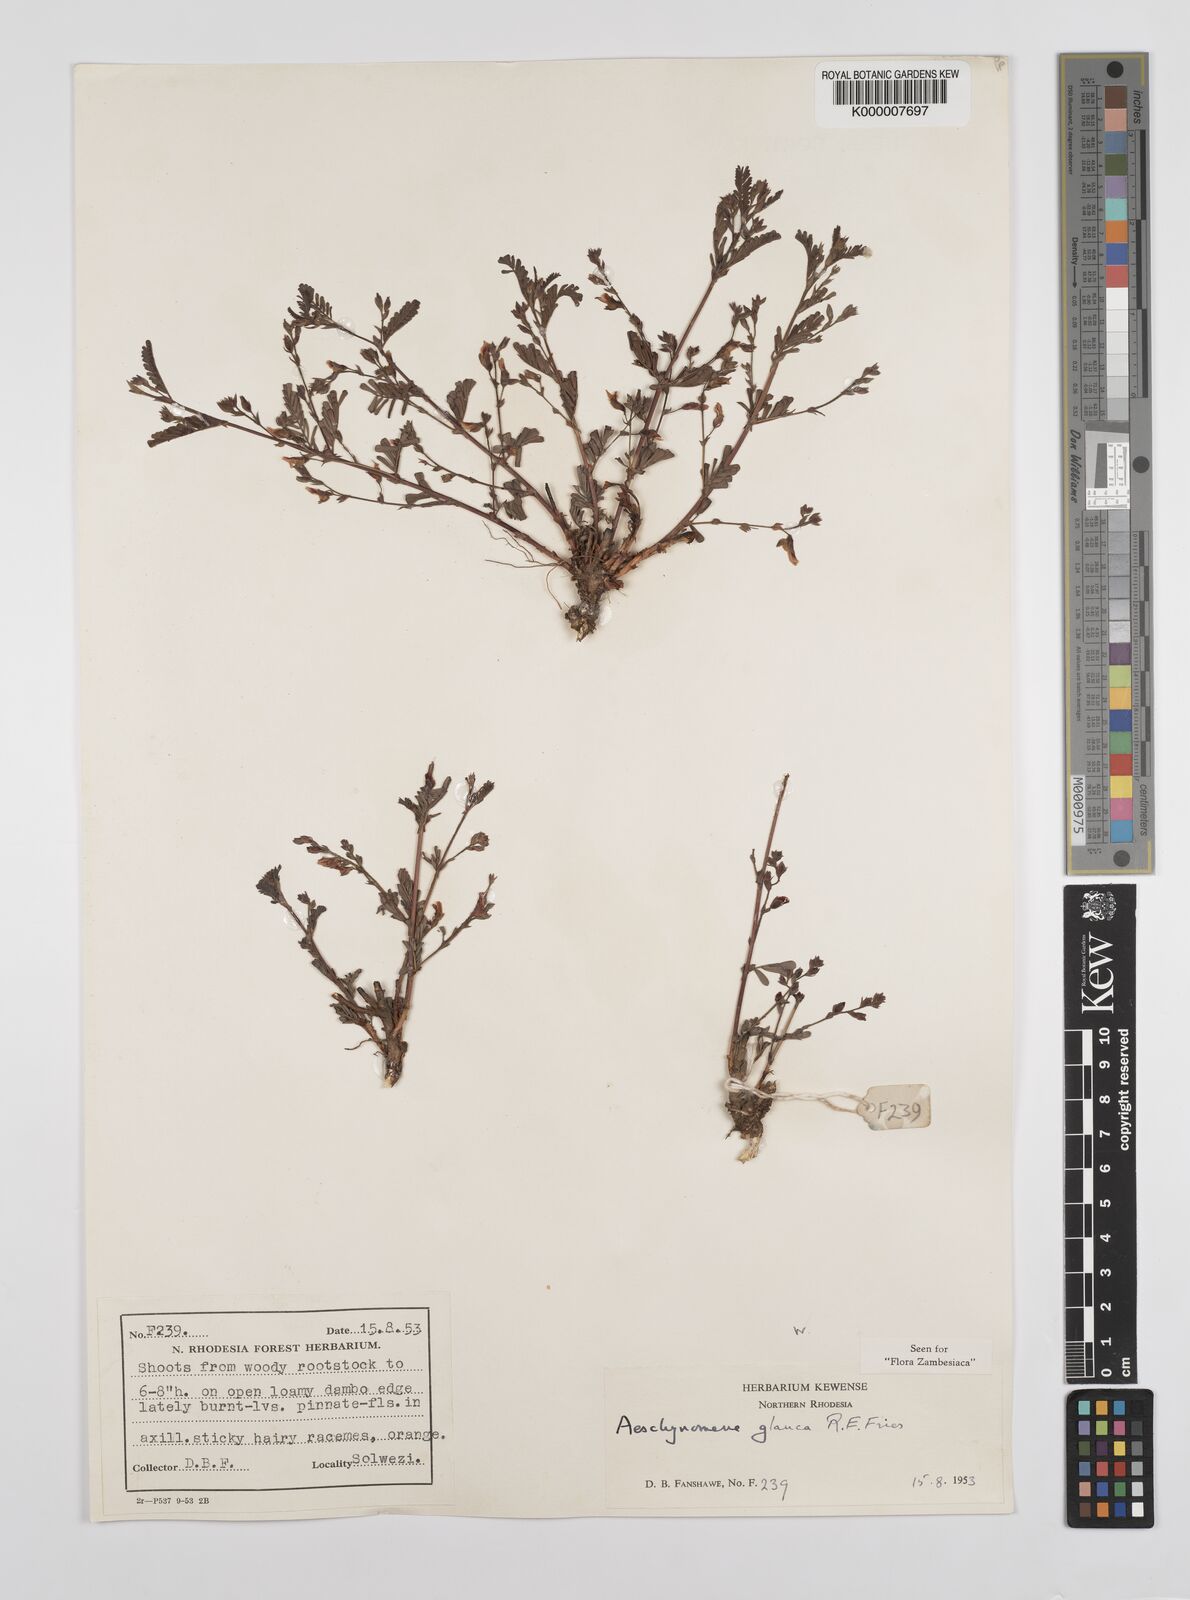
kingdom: Plantae
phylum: Tracheophyta
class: Magnoliopsida
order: Fabales
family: Fabaceae
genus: Aeschynomene
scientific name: Aeschynomene glauca
